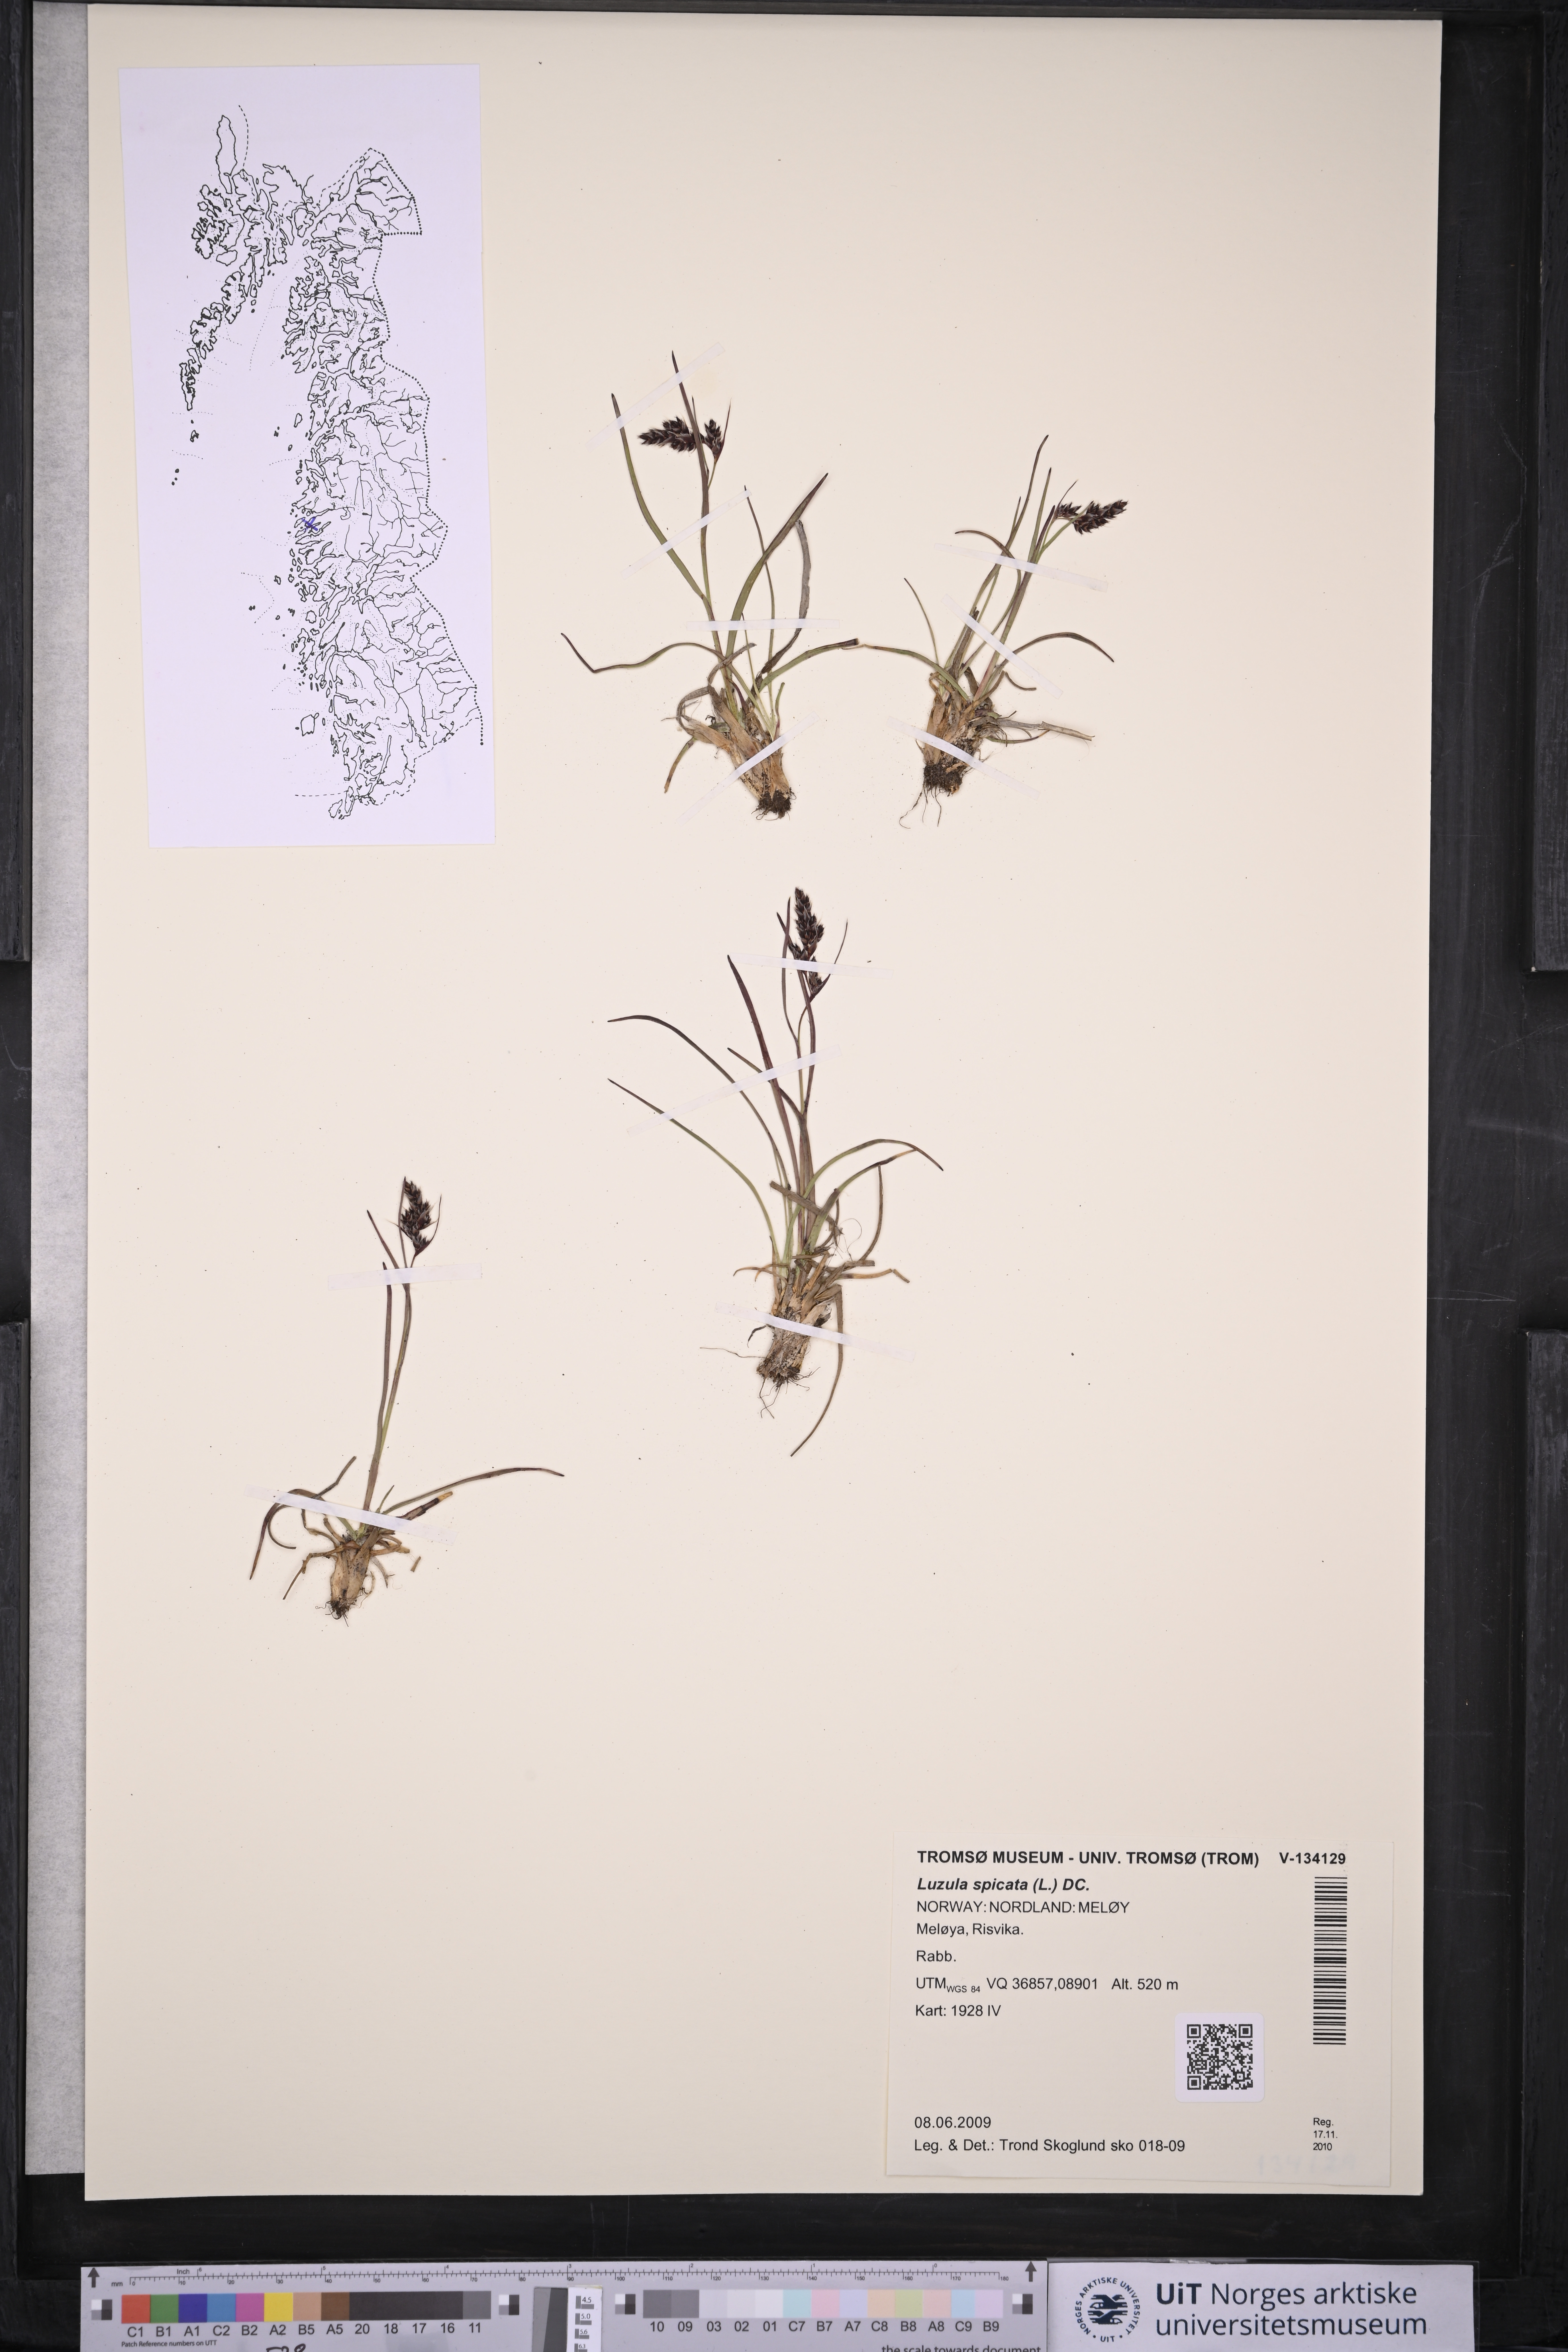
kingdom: Plantae
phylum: Tracheophyta
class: Liliopsida
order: Poales
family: Juncaceae
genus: Luzula
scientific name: Luzula spicata
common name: Spiked wood-rush
